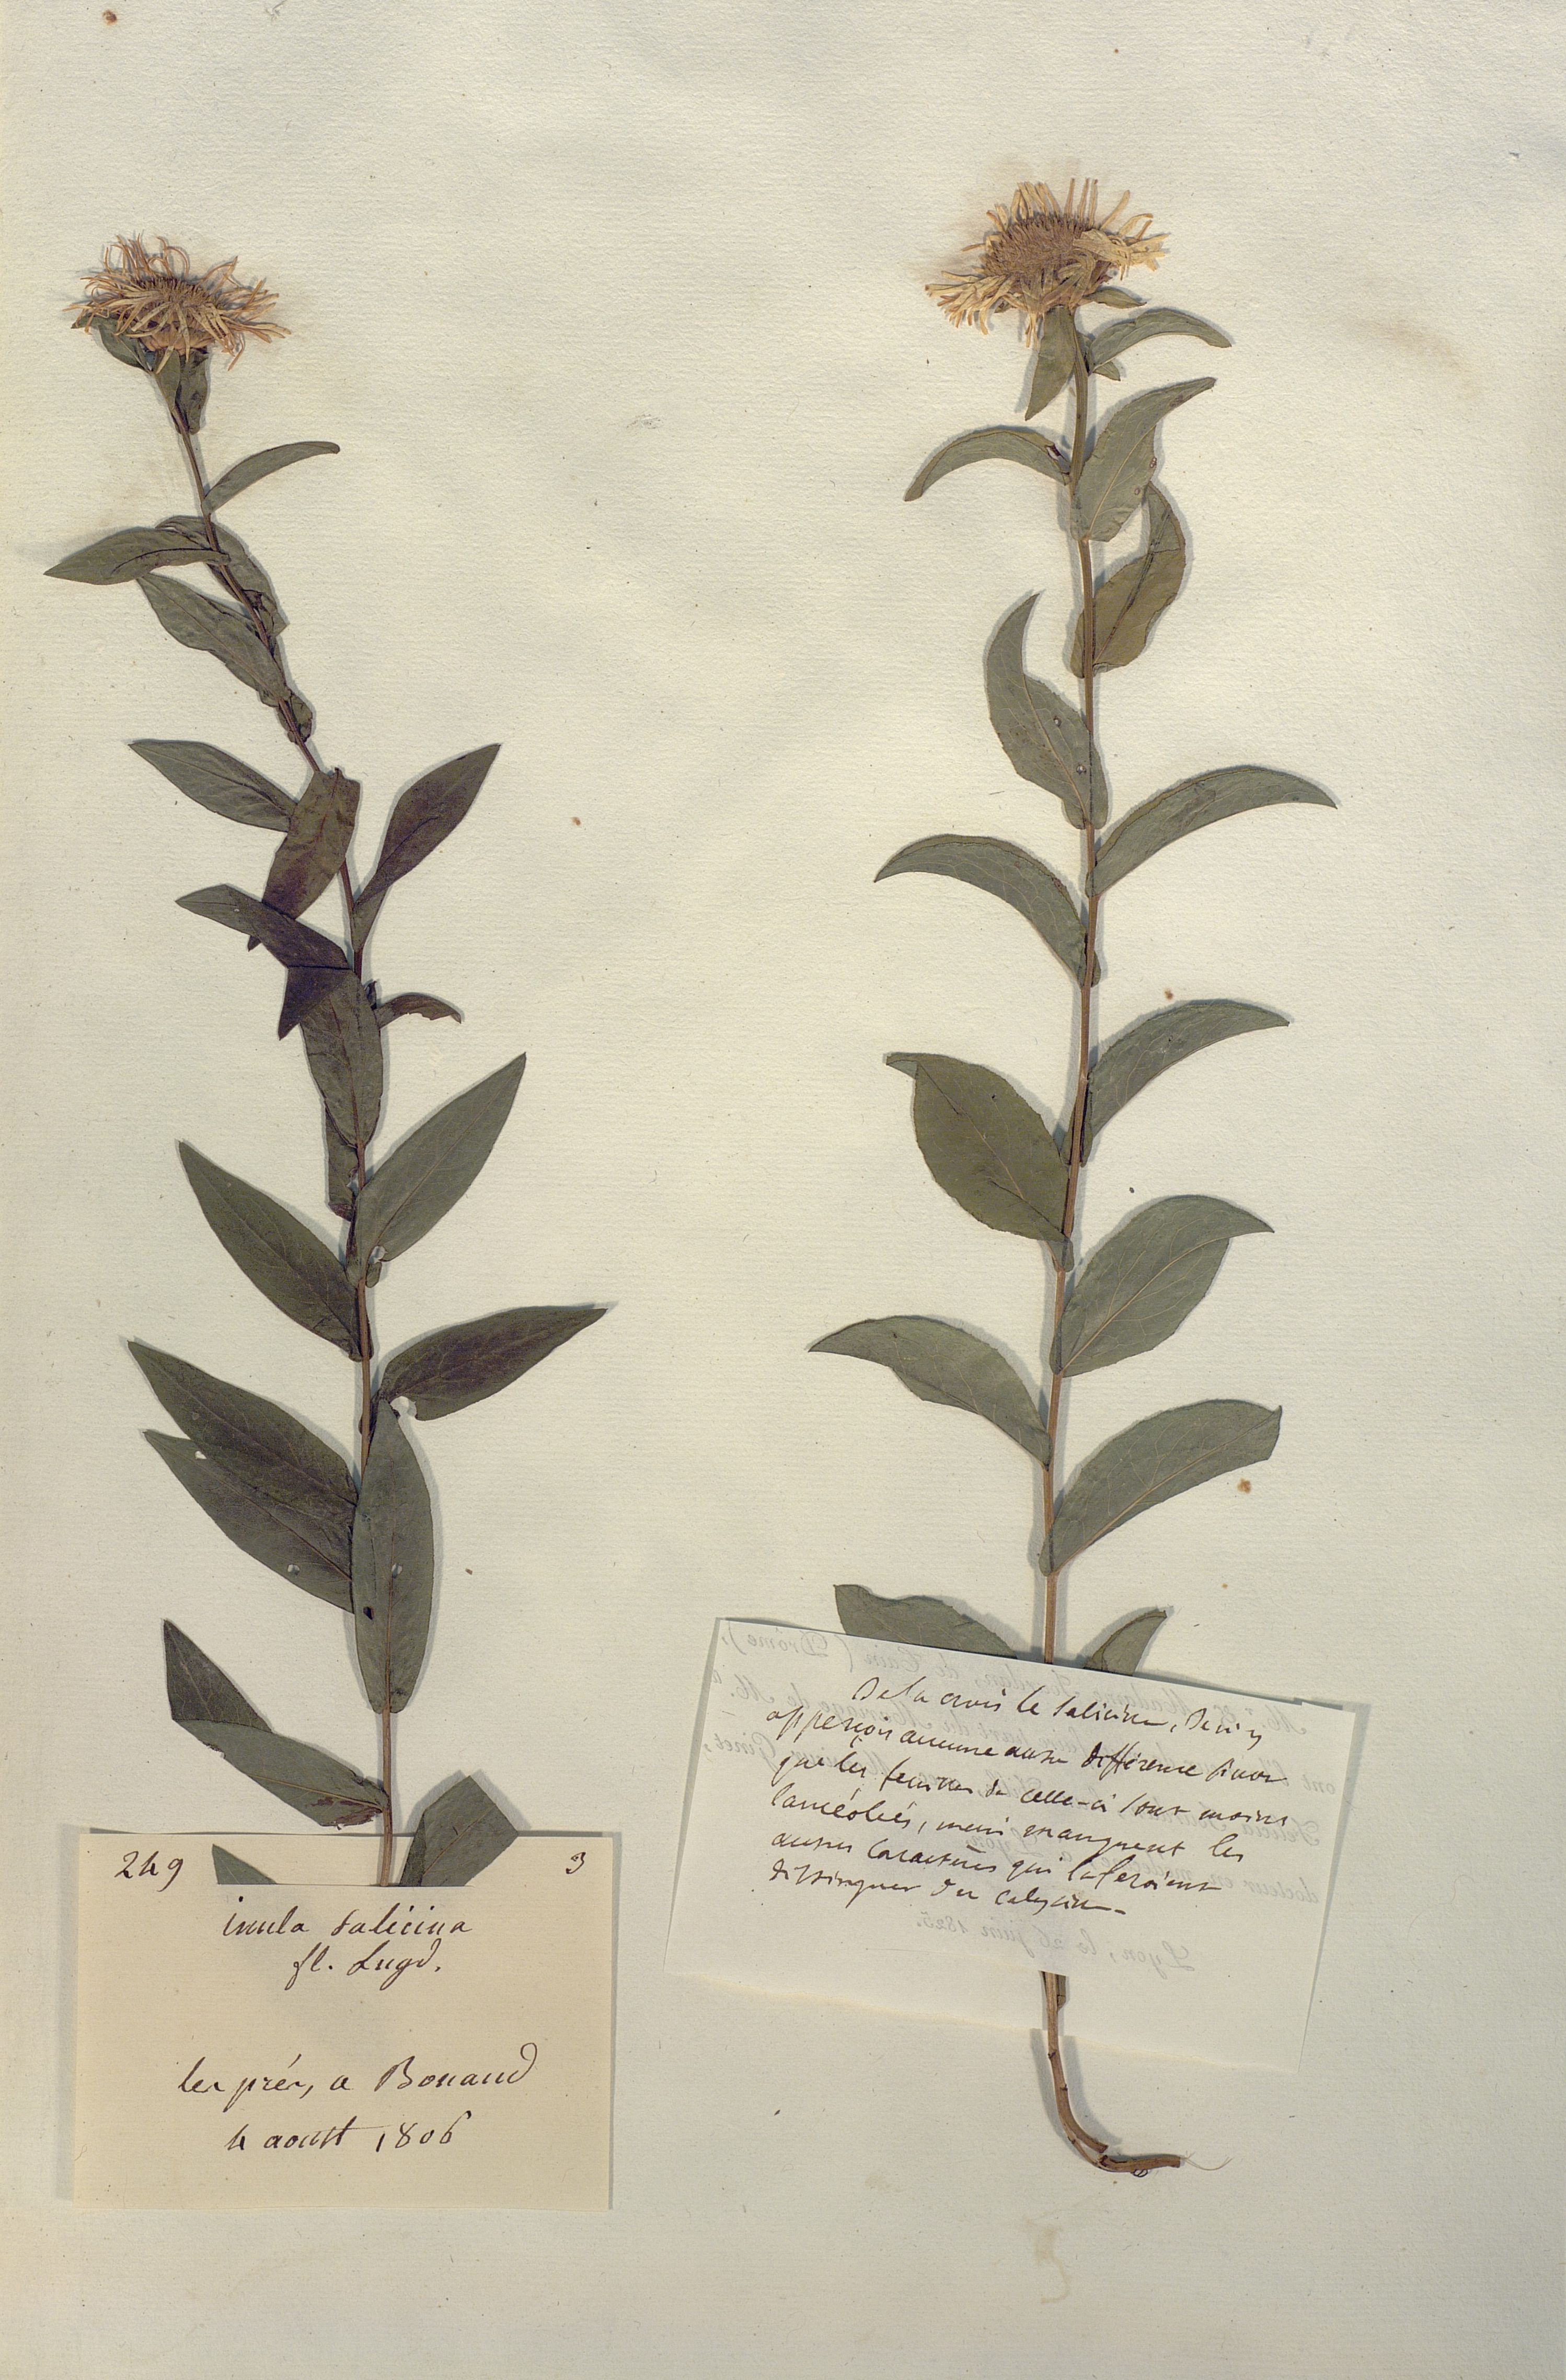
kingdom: Plantae
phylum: Tracheophyta
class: Magnoliopsida
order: Asterales
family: Asteraceae
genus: Inula
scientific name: Inula salicina
